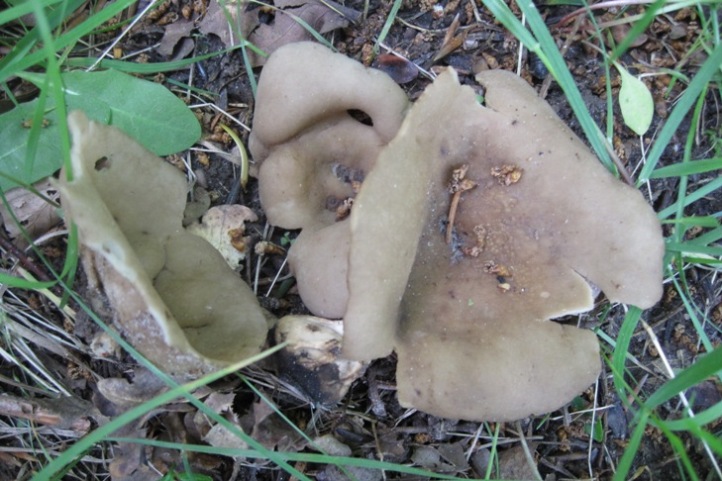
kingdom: Fungi
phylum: Ascomycota
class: Pezizomycetes
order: Pezizales
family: Helvellaceae
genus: Helvella
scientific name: Helvella acetabulum
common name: pokal-foldhat
